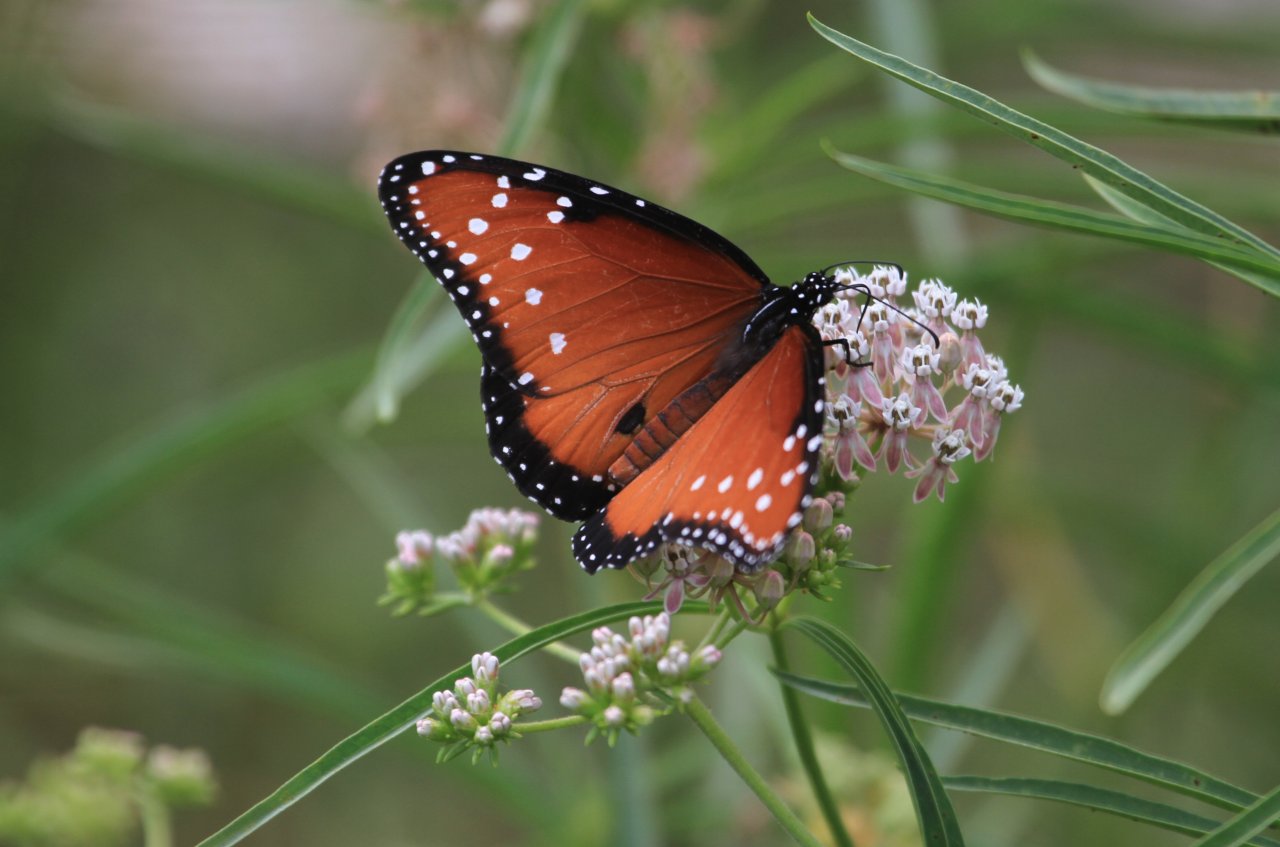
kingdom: Animalia
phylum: Arthropoda
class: Insecta
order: Lepidoptera
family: Nymphalidae
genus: Danaus
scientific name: Danaus gilippus
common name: Queen
